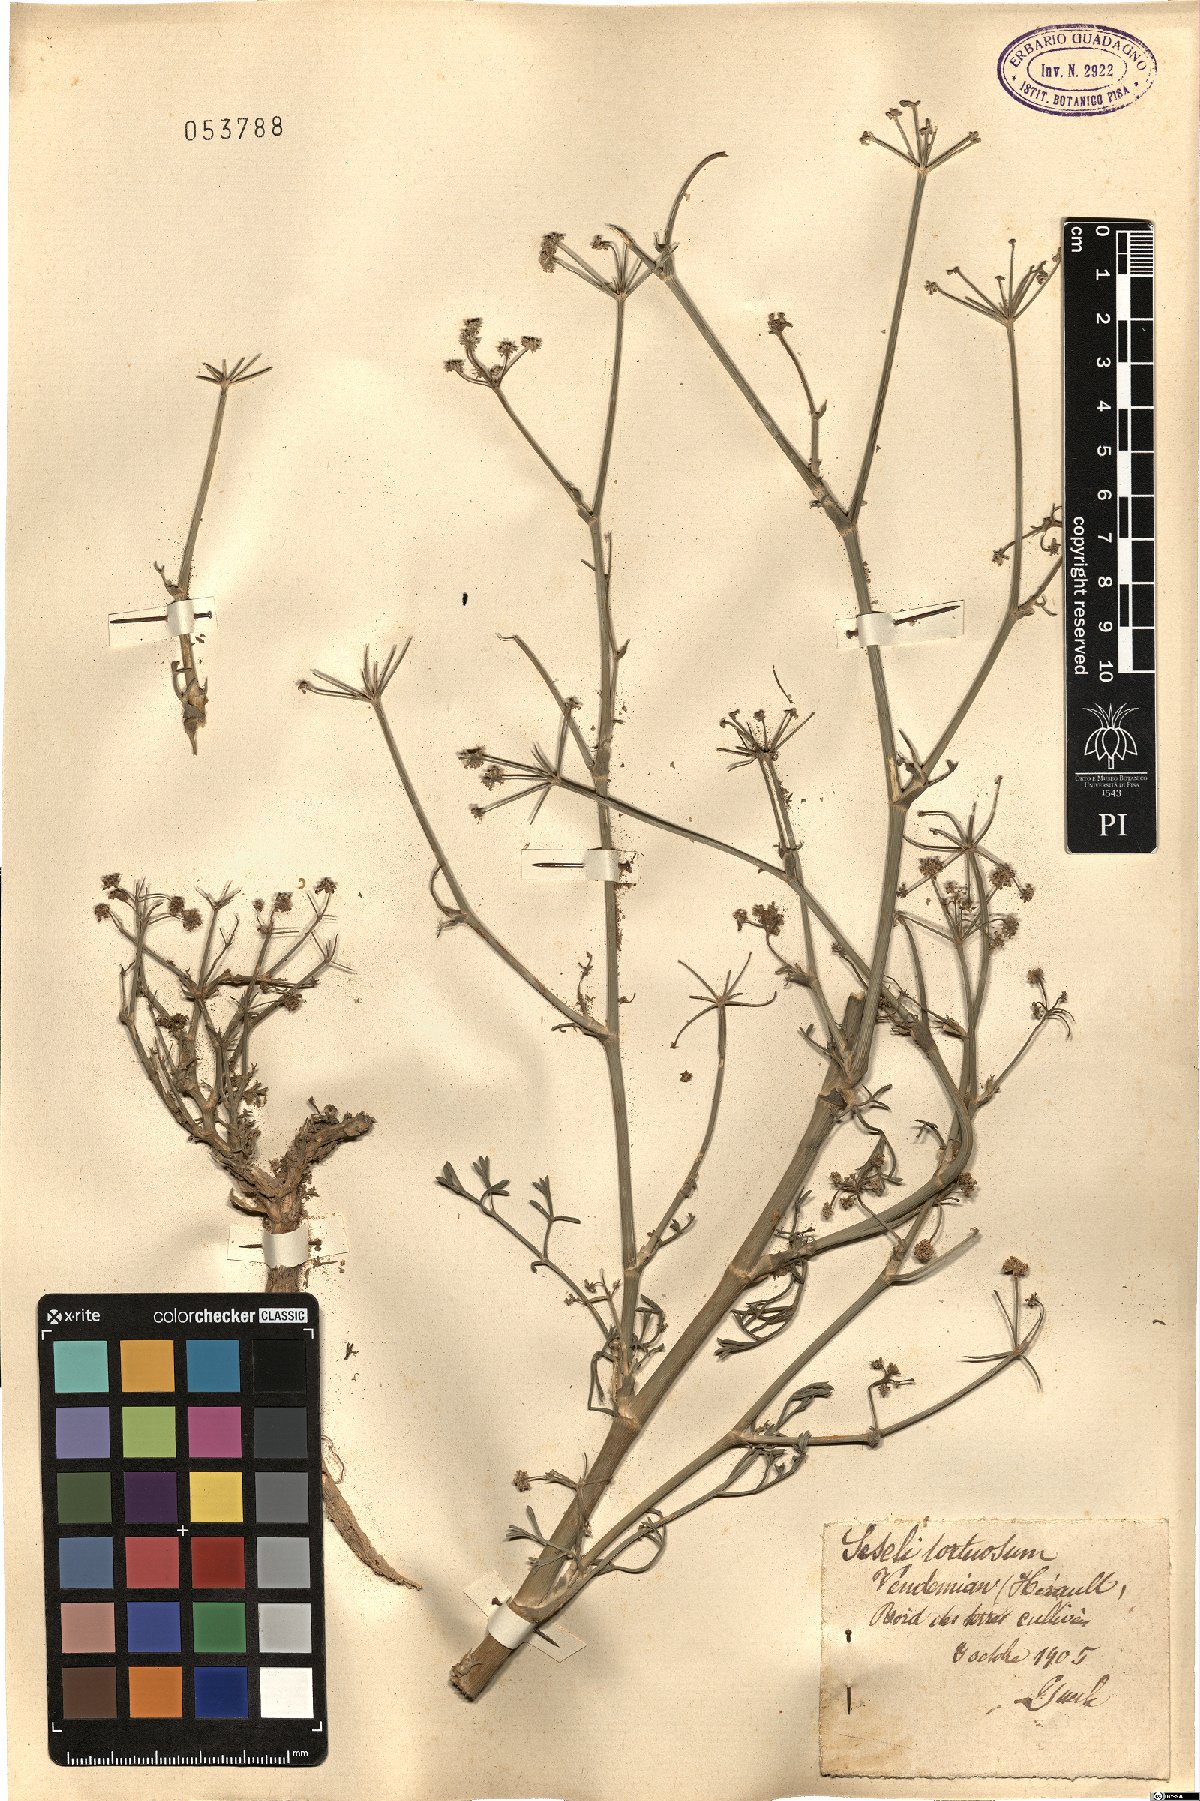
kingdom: Plantae
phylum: Tracheophyta
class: Magnoliopsida
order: Apiales
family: Apiaceae
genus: Seseli
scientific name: Seseli tortuosum
